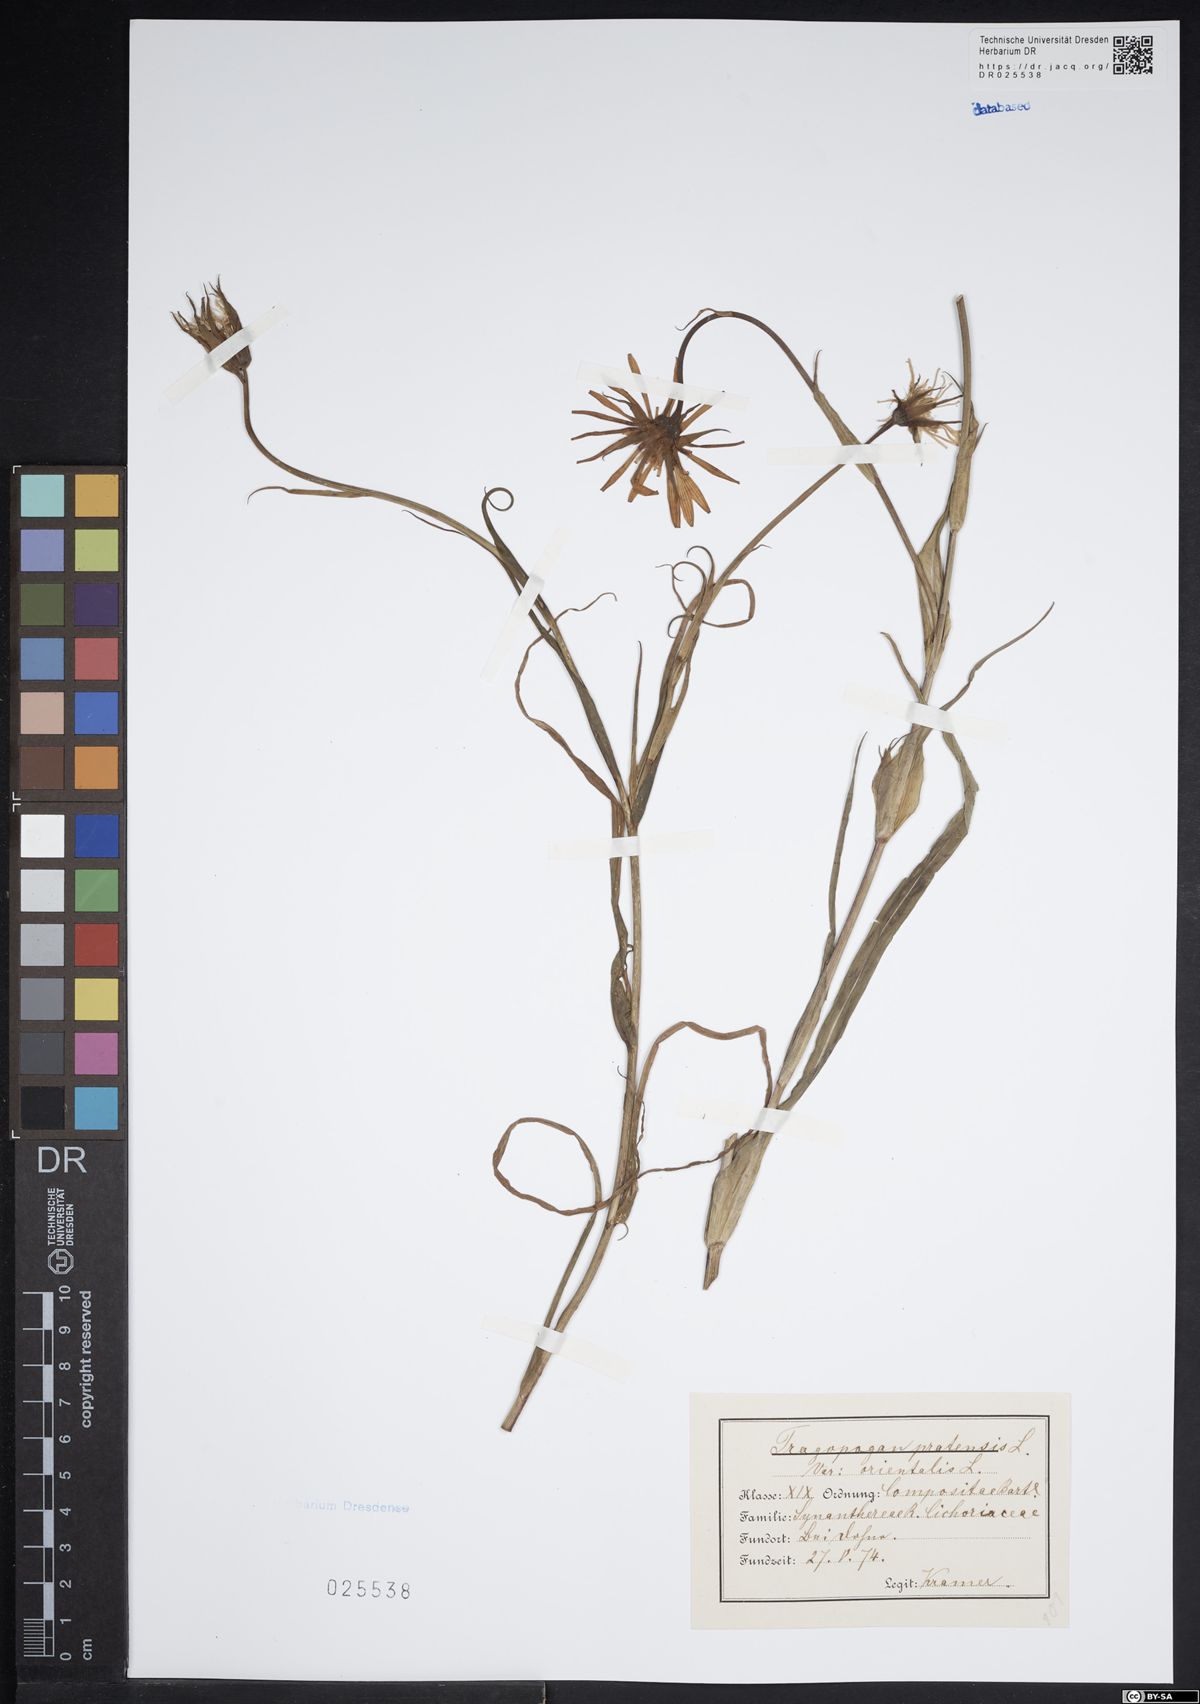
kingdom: Plantae
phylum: Tracheophyta
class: Magnoliopsida
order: Asterales
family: Asteraceae
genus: Tragopogon
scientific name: Tragopogon pratensis
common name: Goat's-beard
